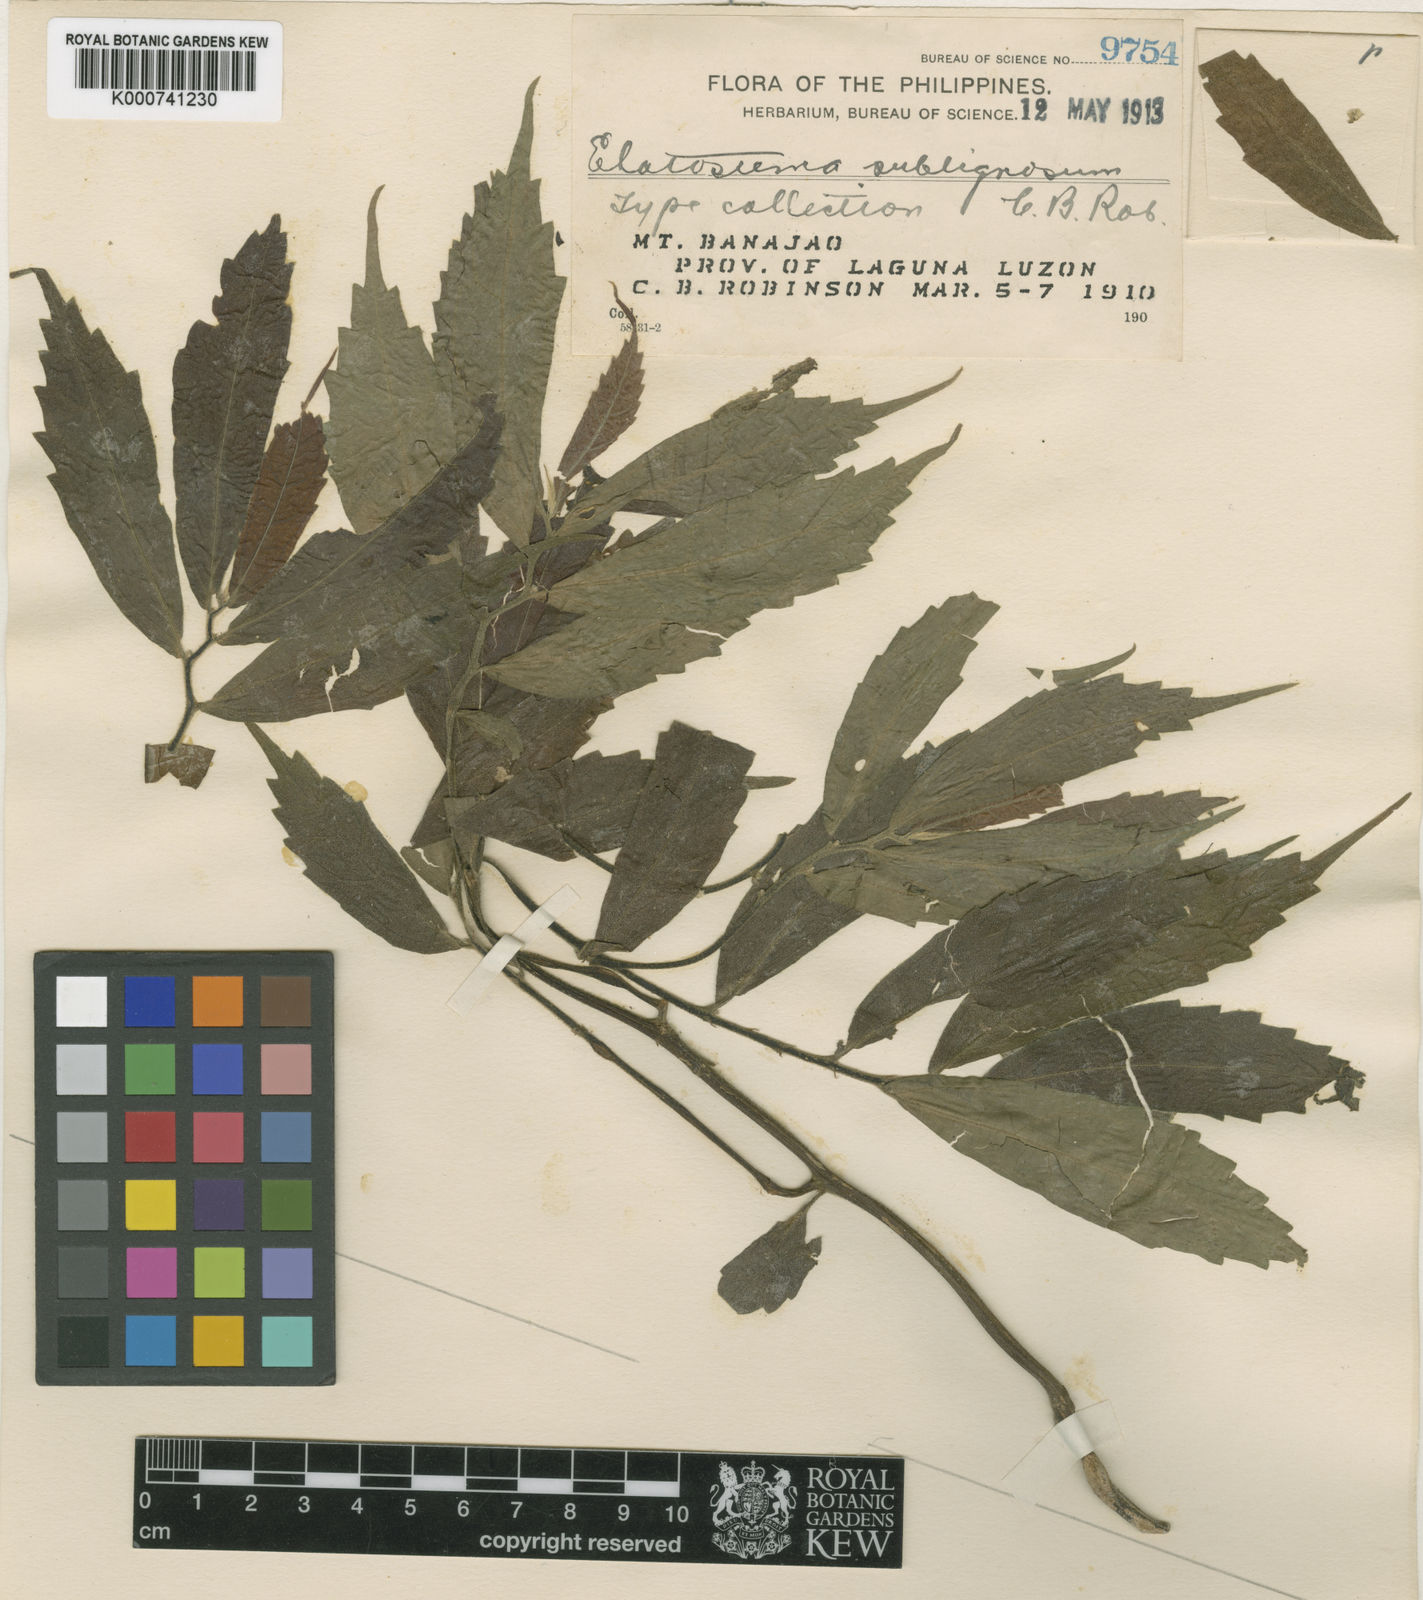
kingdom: Plantae
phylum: Tracheophyta
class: Magnoliopsida
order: Rosales
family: Urticaceae
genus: Elatostema
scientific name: Elatostema sublignosum
